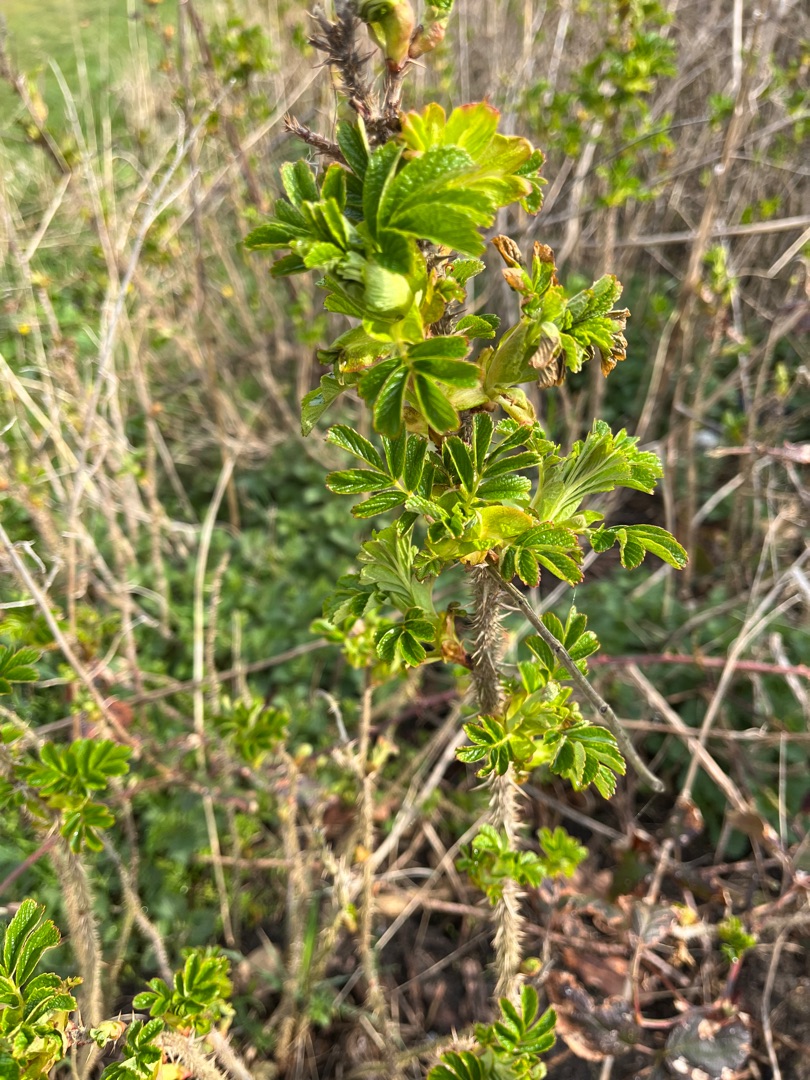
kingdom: Plantae
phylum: Tracheophyta
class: Magnoliopsida
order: Rosales
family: Rosaceae
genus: Rosa
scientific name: Rosa rugosa
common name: Rynket rose
